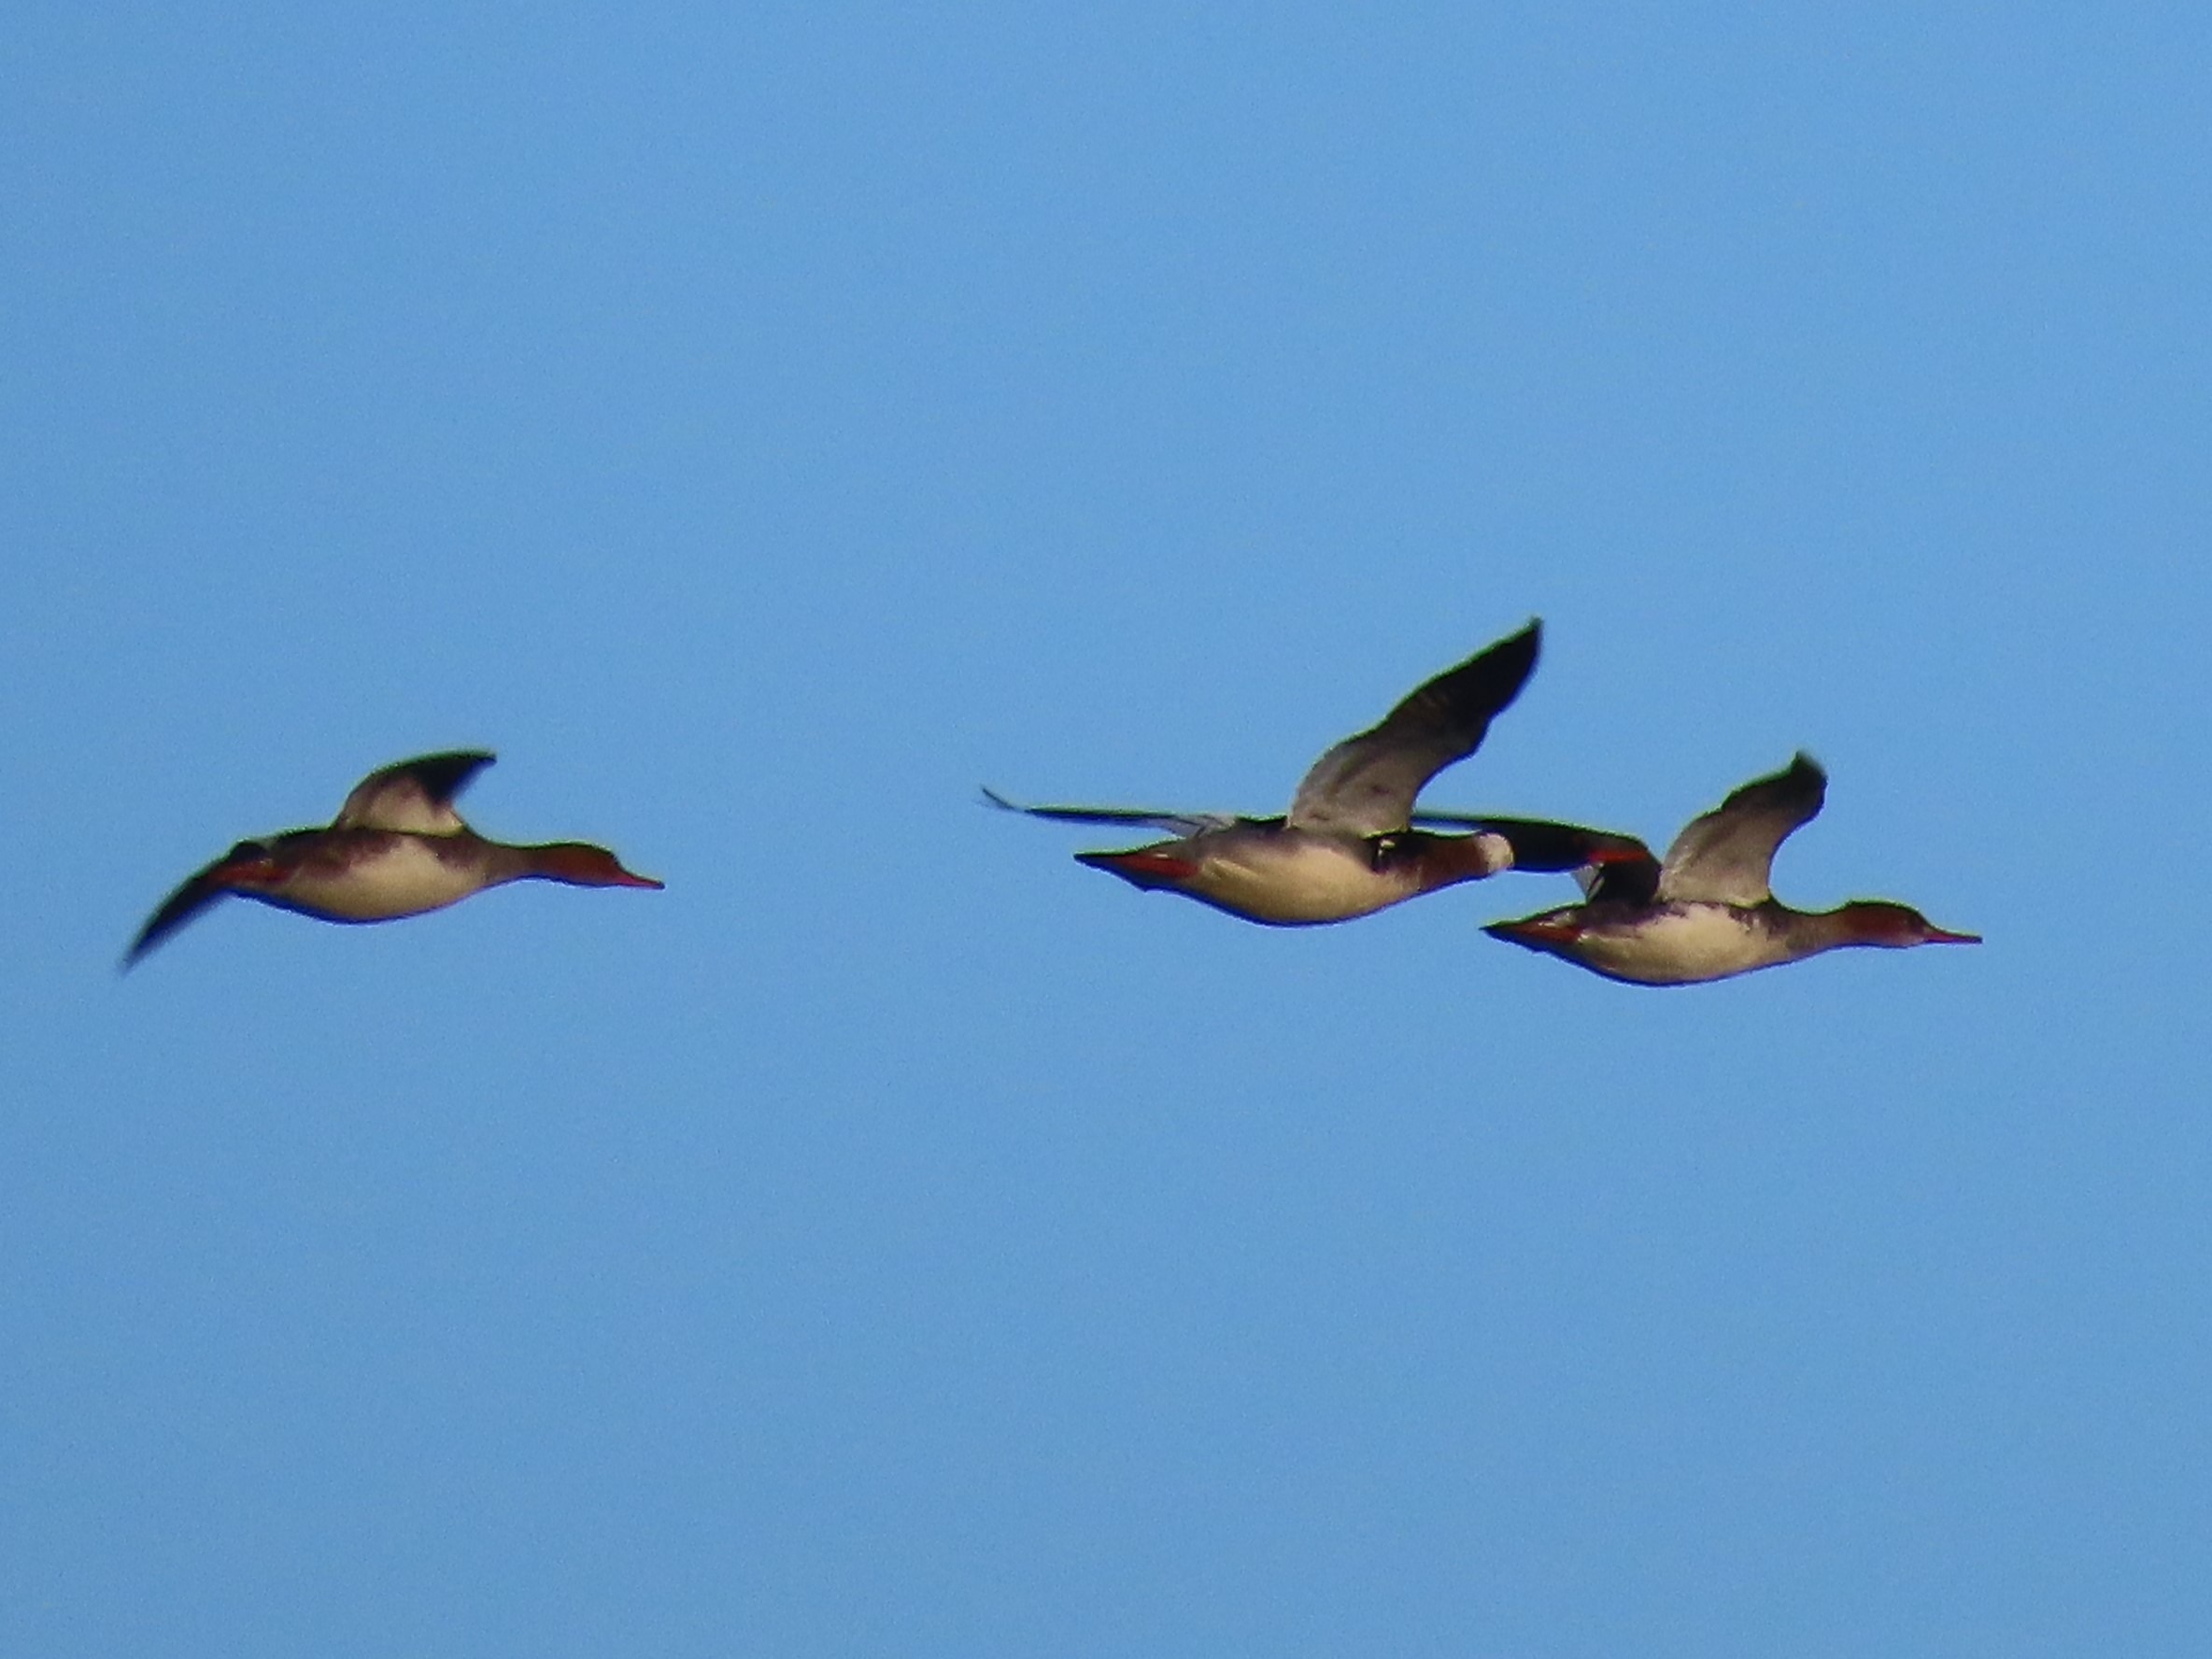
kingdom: Animalia
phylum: Chordata
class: Aves
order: Anseriformes
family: Anatidae
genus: Mergus
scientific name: Mergus serrator
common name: Toppet skallesluger
